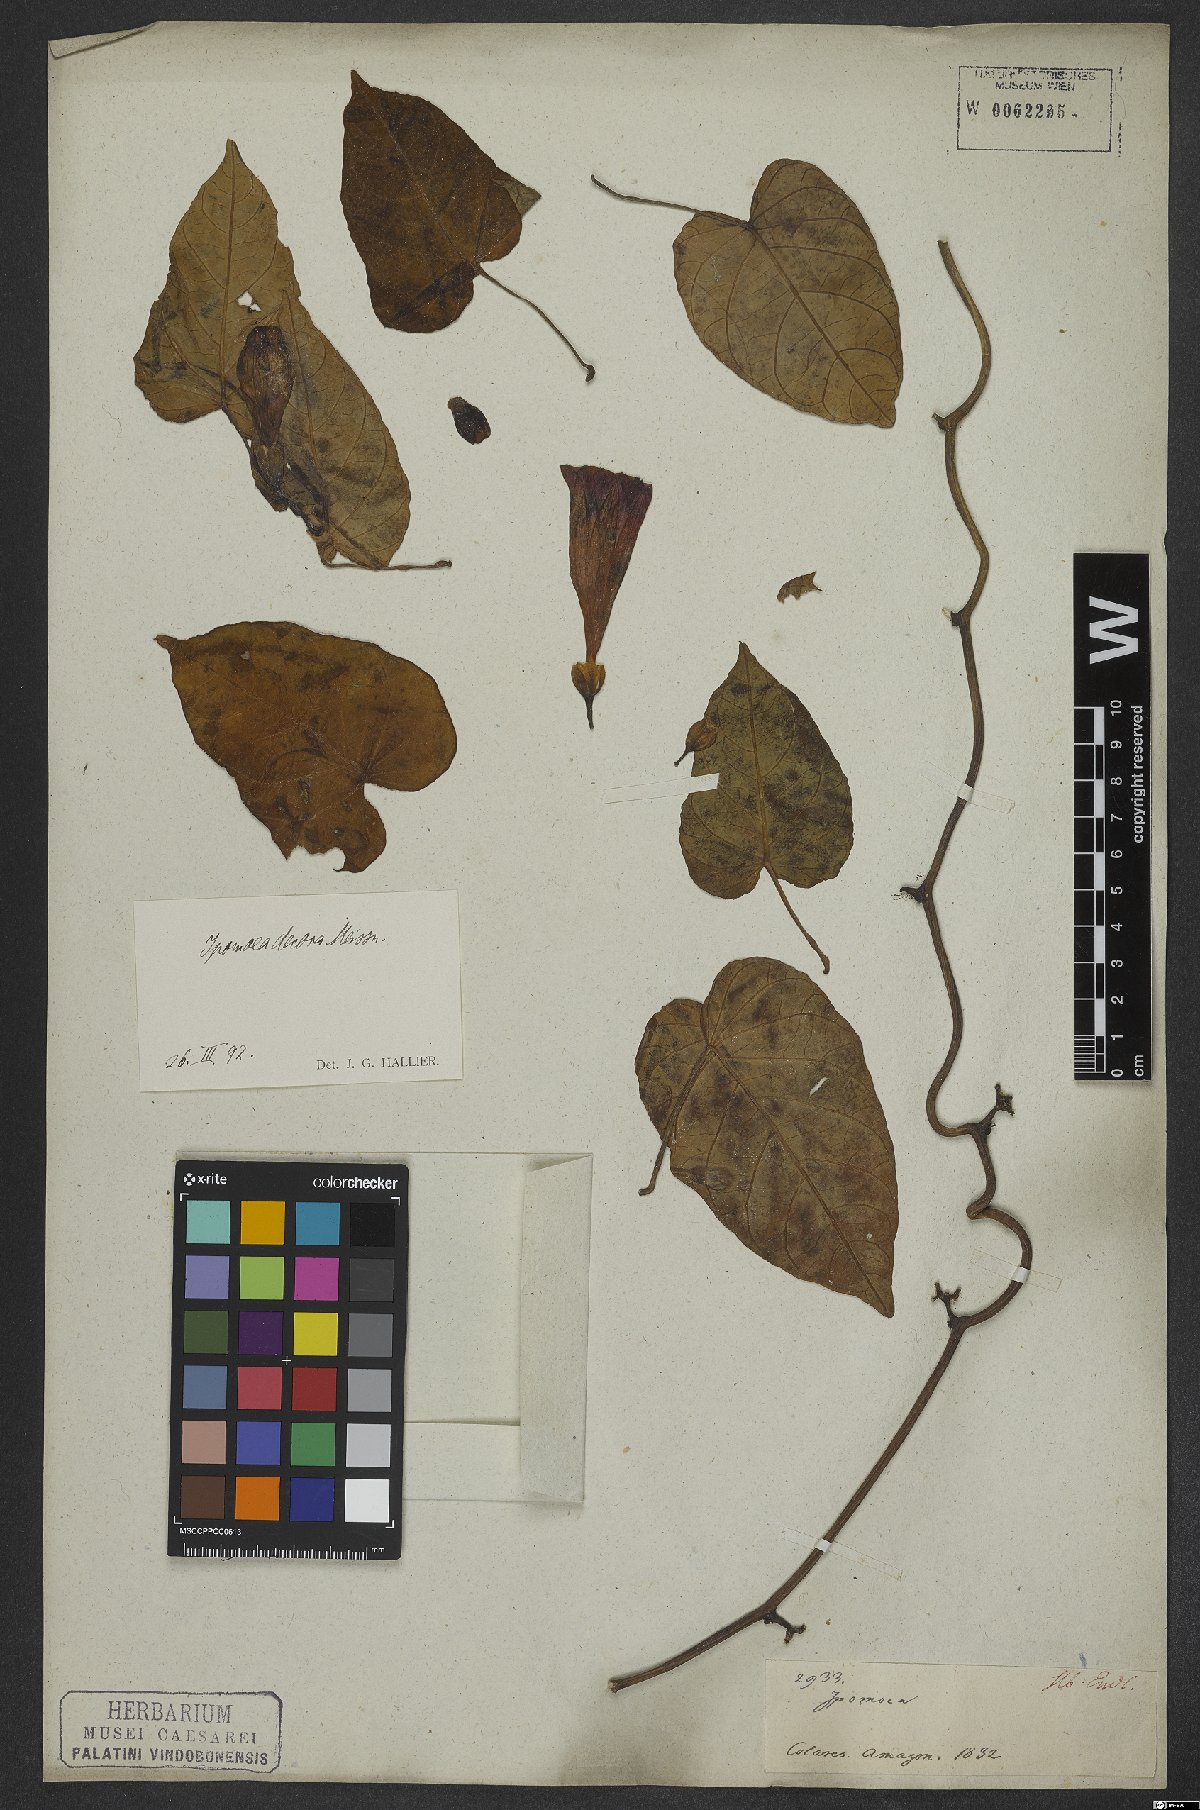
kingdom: Plantae
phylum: Tracheophyta
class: Magnoliopsida
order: Solanales
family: Convolvulaceae
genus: Ipomoea
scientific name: Ipomoea batatas
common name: Sweet-potato
